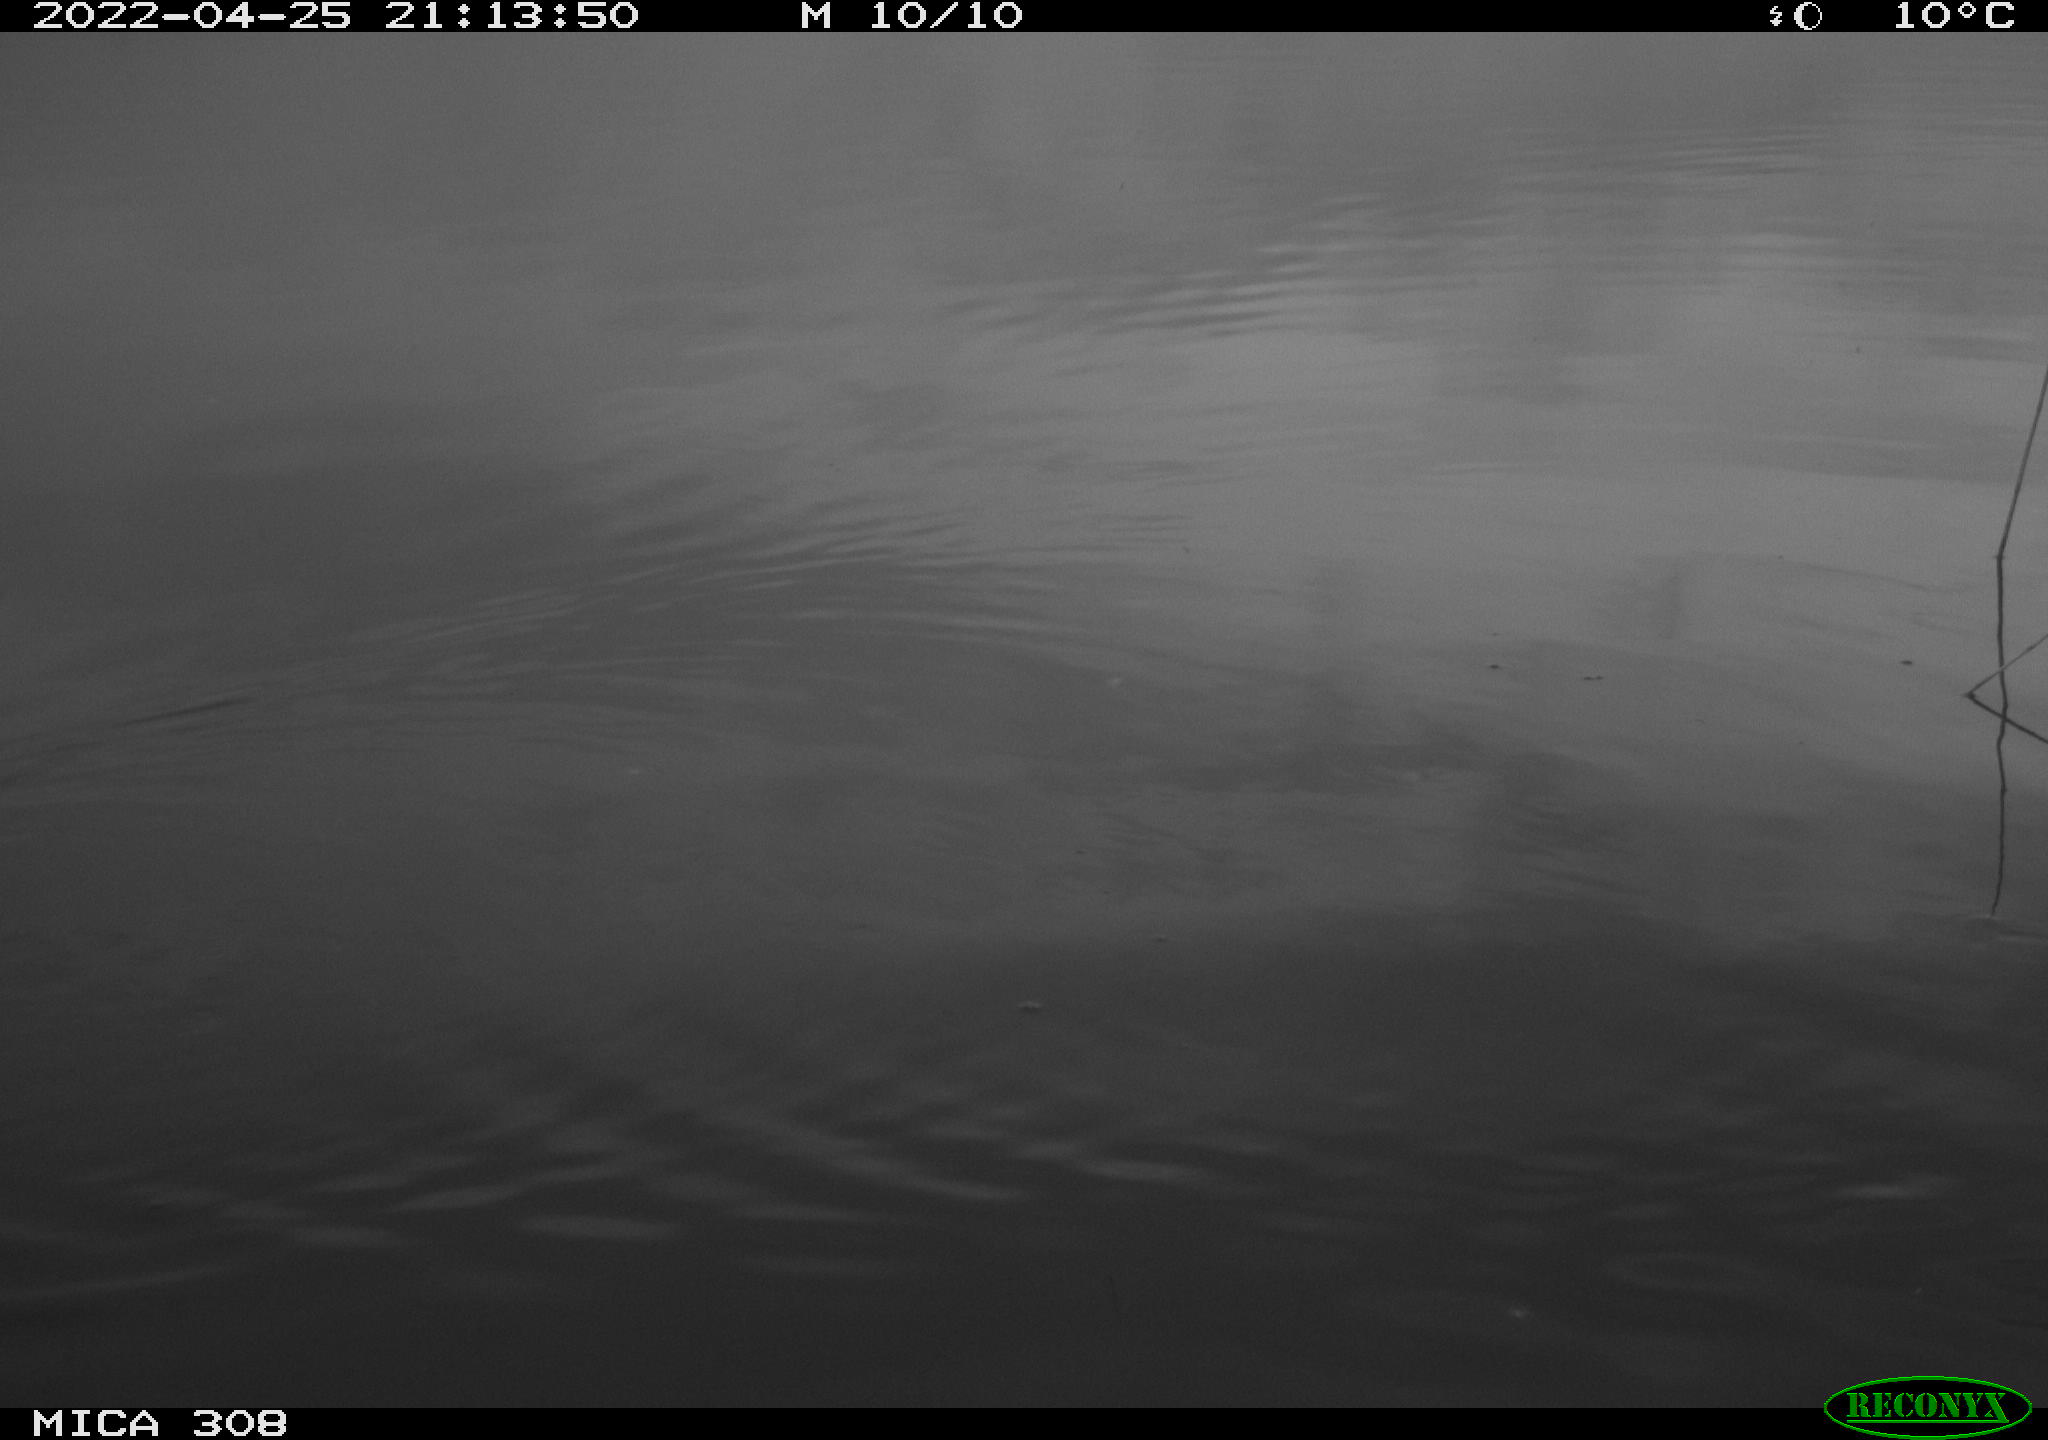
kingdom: Animalia
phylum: Chordata
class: Aves
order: Gruiformes
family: Rallidae
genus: Gallinula
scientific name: Gallinula chloropus
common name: Common moorhen
